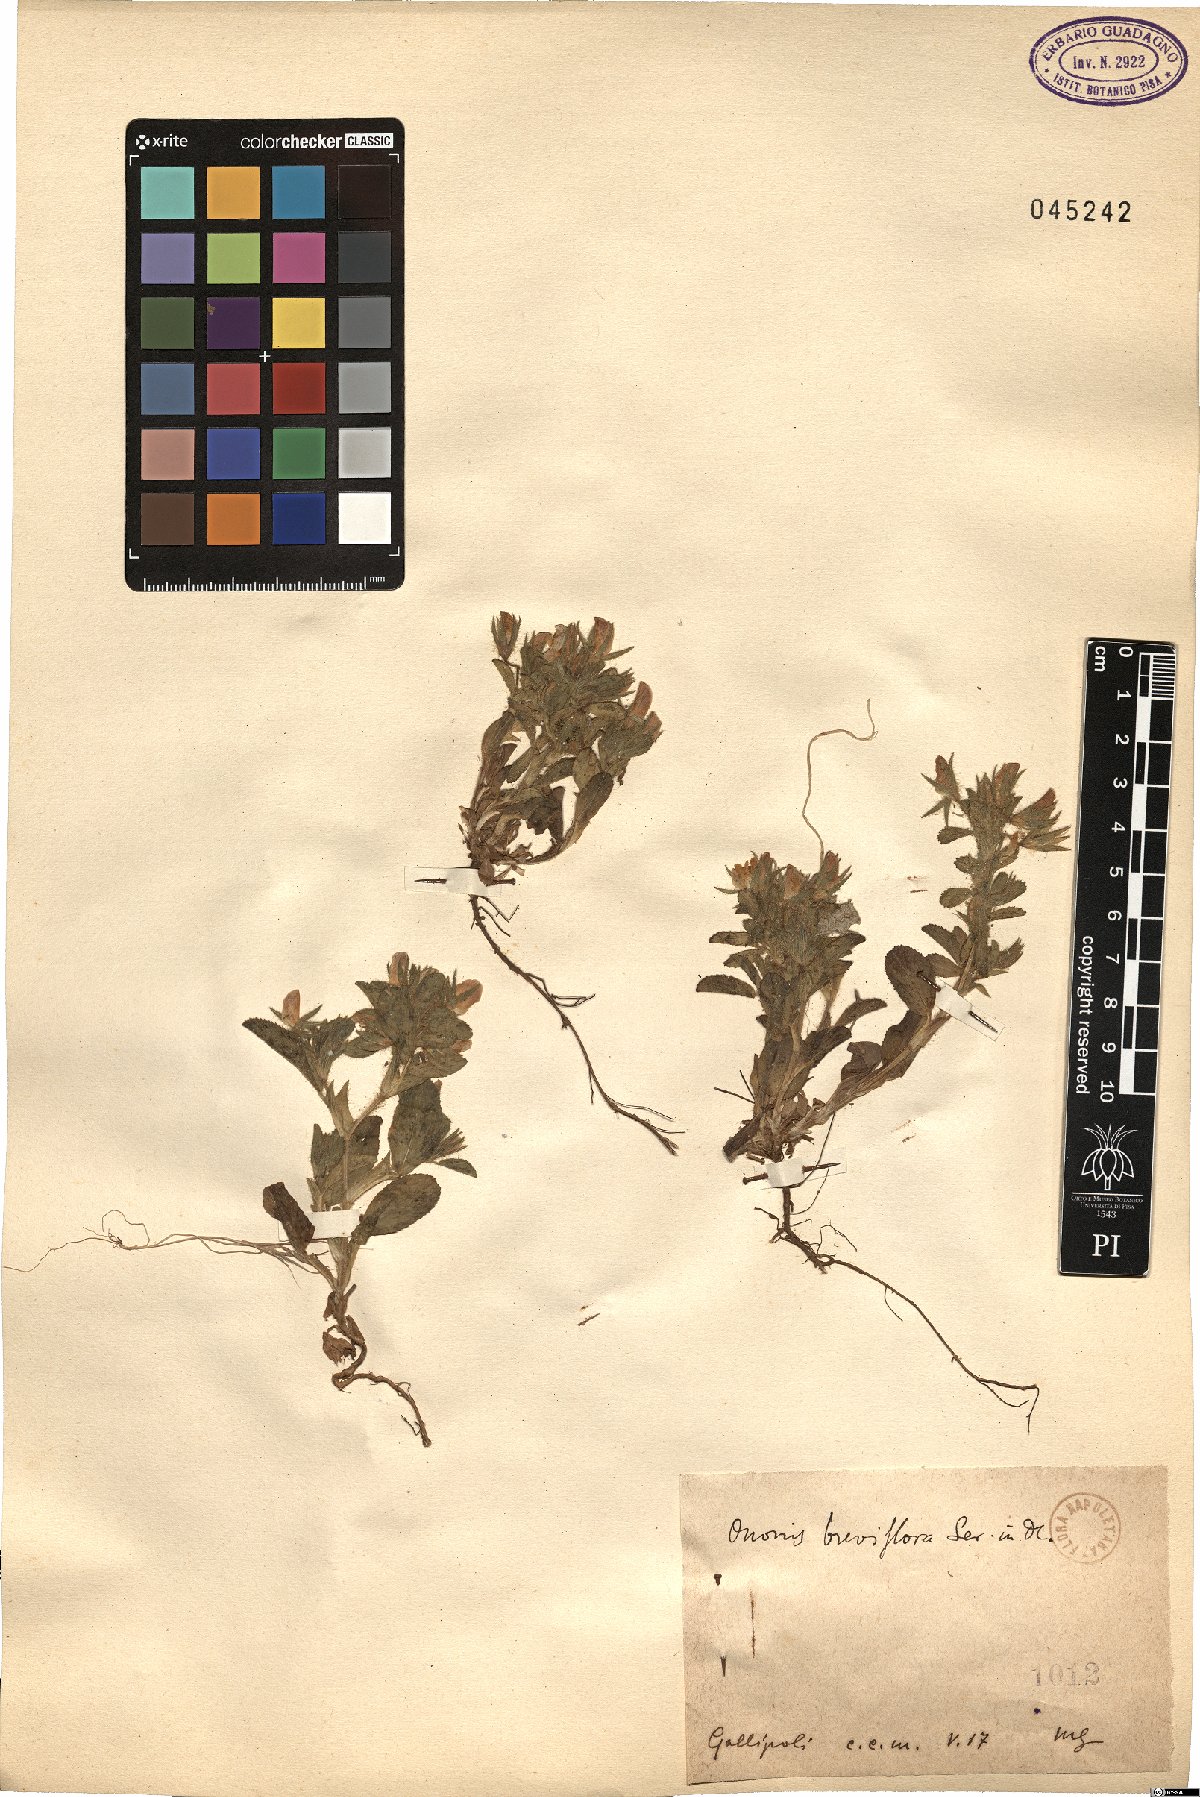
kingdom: Plantae
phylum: Tracheophyta
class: Magnoliopsida
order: Fabales
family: Fabaceae
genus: Ononis
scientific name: Ononis viscosa
